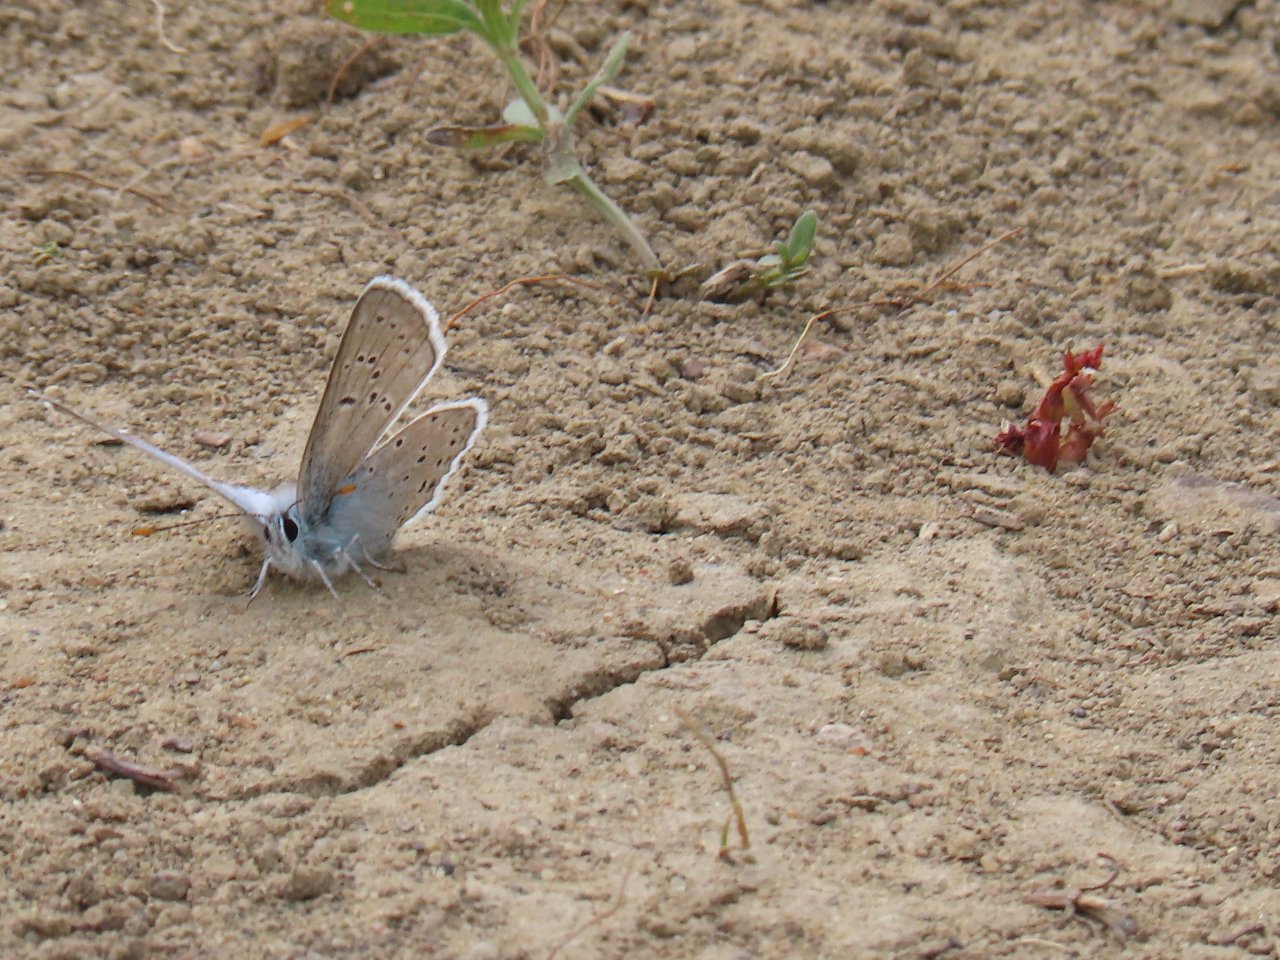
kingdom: Animalia
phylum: Arthropoda
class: Insecta
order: Lepidoptera
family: Lycaenidae
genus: Plebejus
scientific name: Plebejus saepiolus
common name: Greenish Blue
